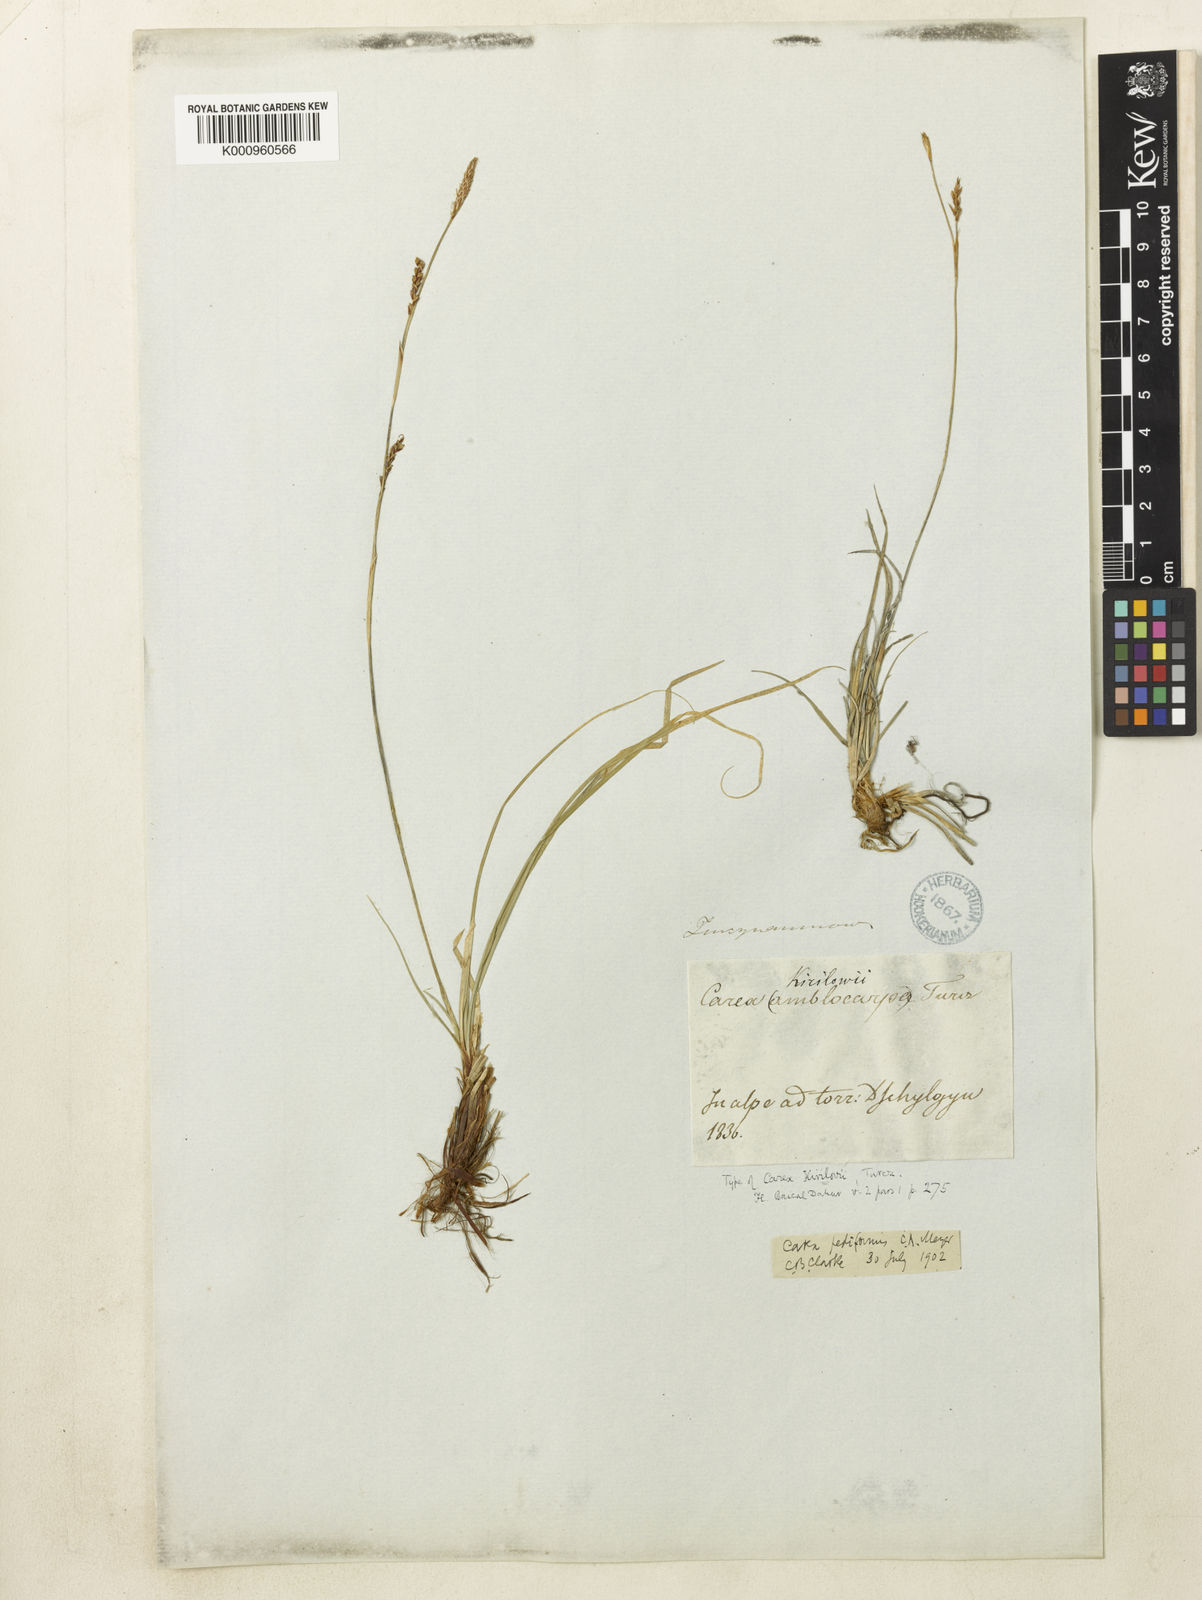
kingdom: Plantae
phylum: Tracheophyta
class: Liliopsida
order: Poales
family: Cyperaceae
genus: Carex
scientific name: Carex pediformis
